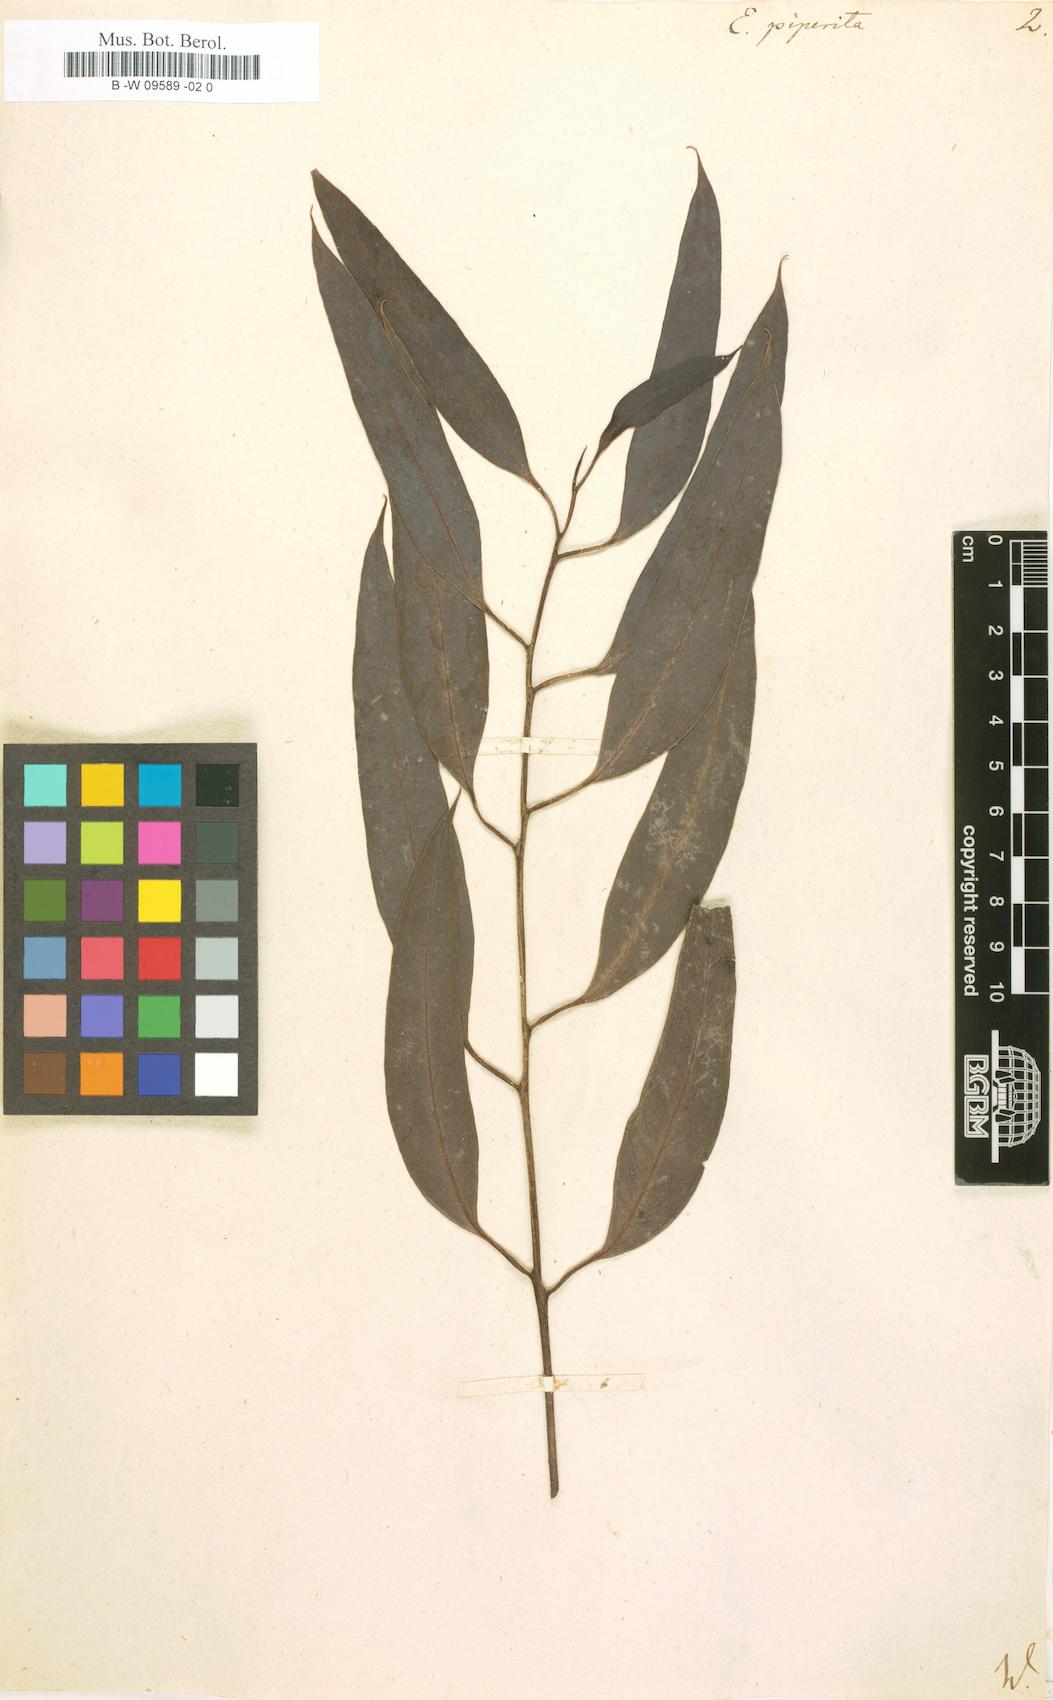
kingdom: Plantae
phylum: Tracheophyta
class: Magnoliopsida
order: Myrtales
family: Myrtaceae
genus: Eucalyptus
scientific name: Eucalyptus piperita
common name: Sydney peppermint
